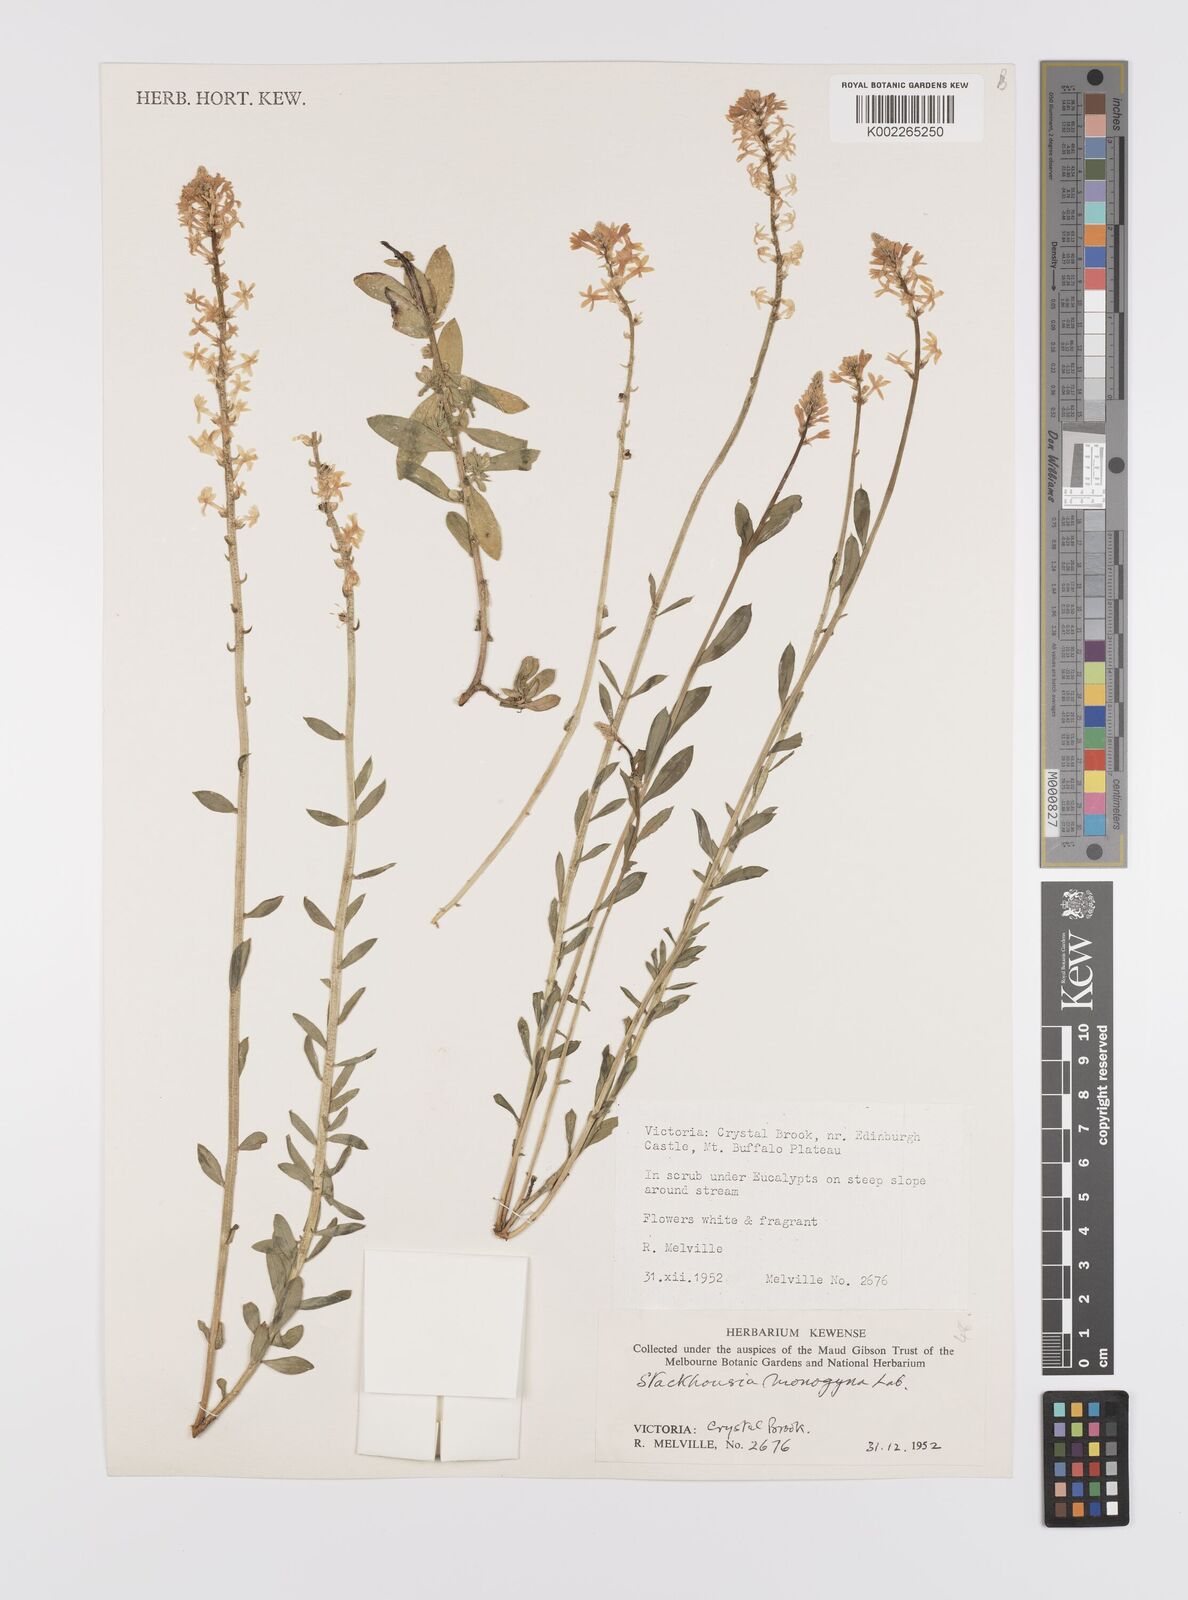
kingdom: Plantae
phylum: Tracheophyta
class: Magnoliopsida
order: Celastrales
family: Celastraceae
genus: Stackhousia
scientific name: Stackhousia monogyna
